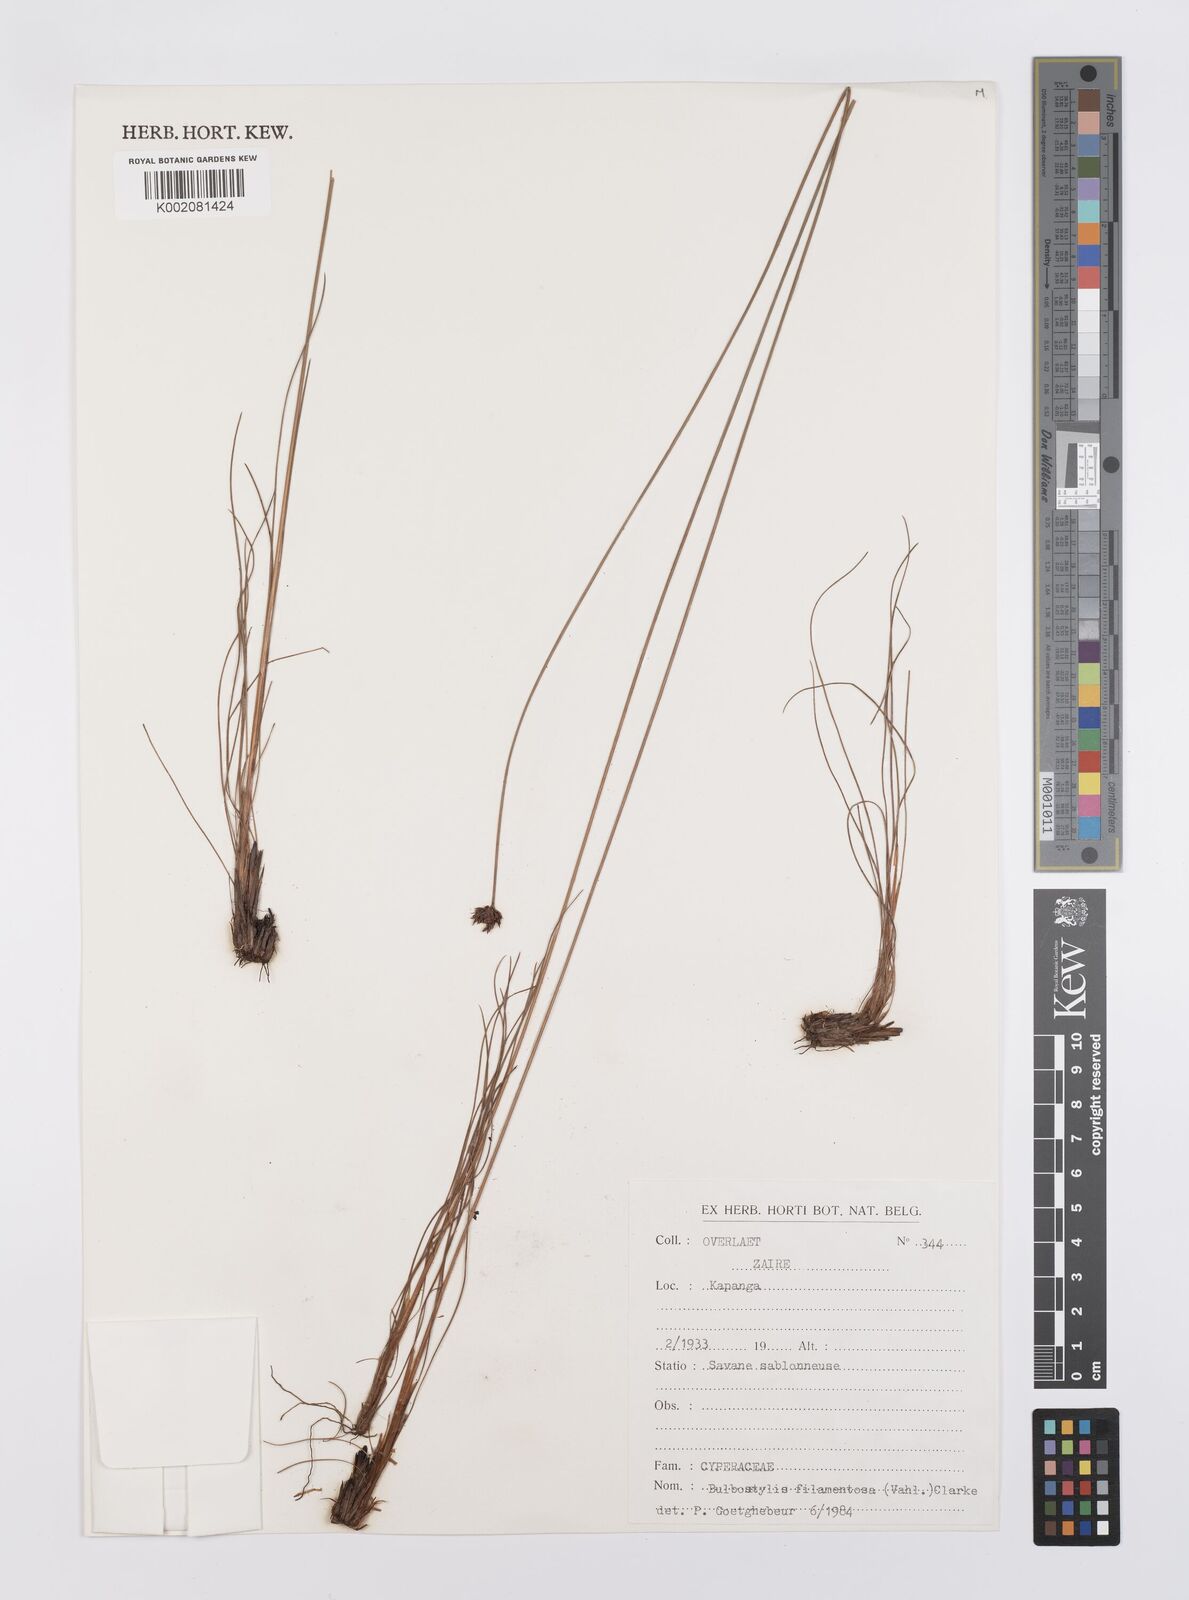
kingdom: Plantae
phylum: Tracheophyta
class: Liliopsida
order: Poales
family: Cyperaceae
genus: Bulbostylis
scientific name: Bulbostylis filamentosa
